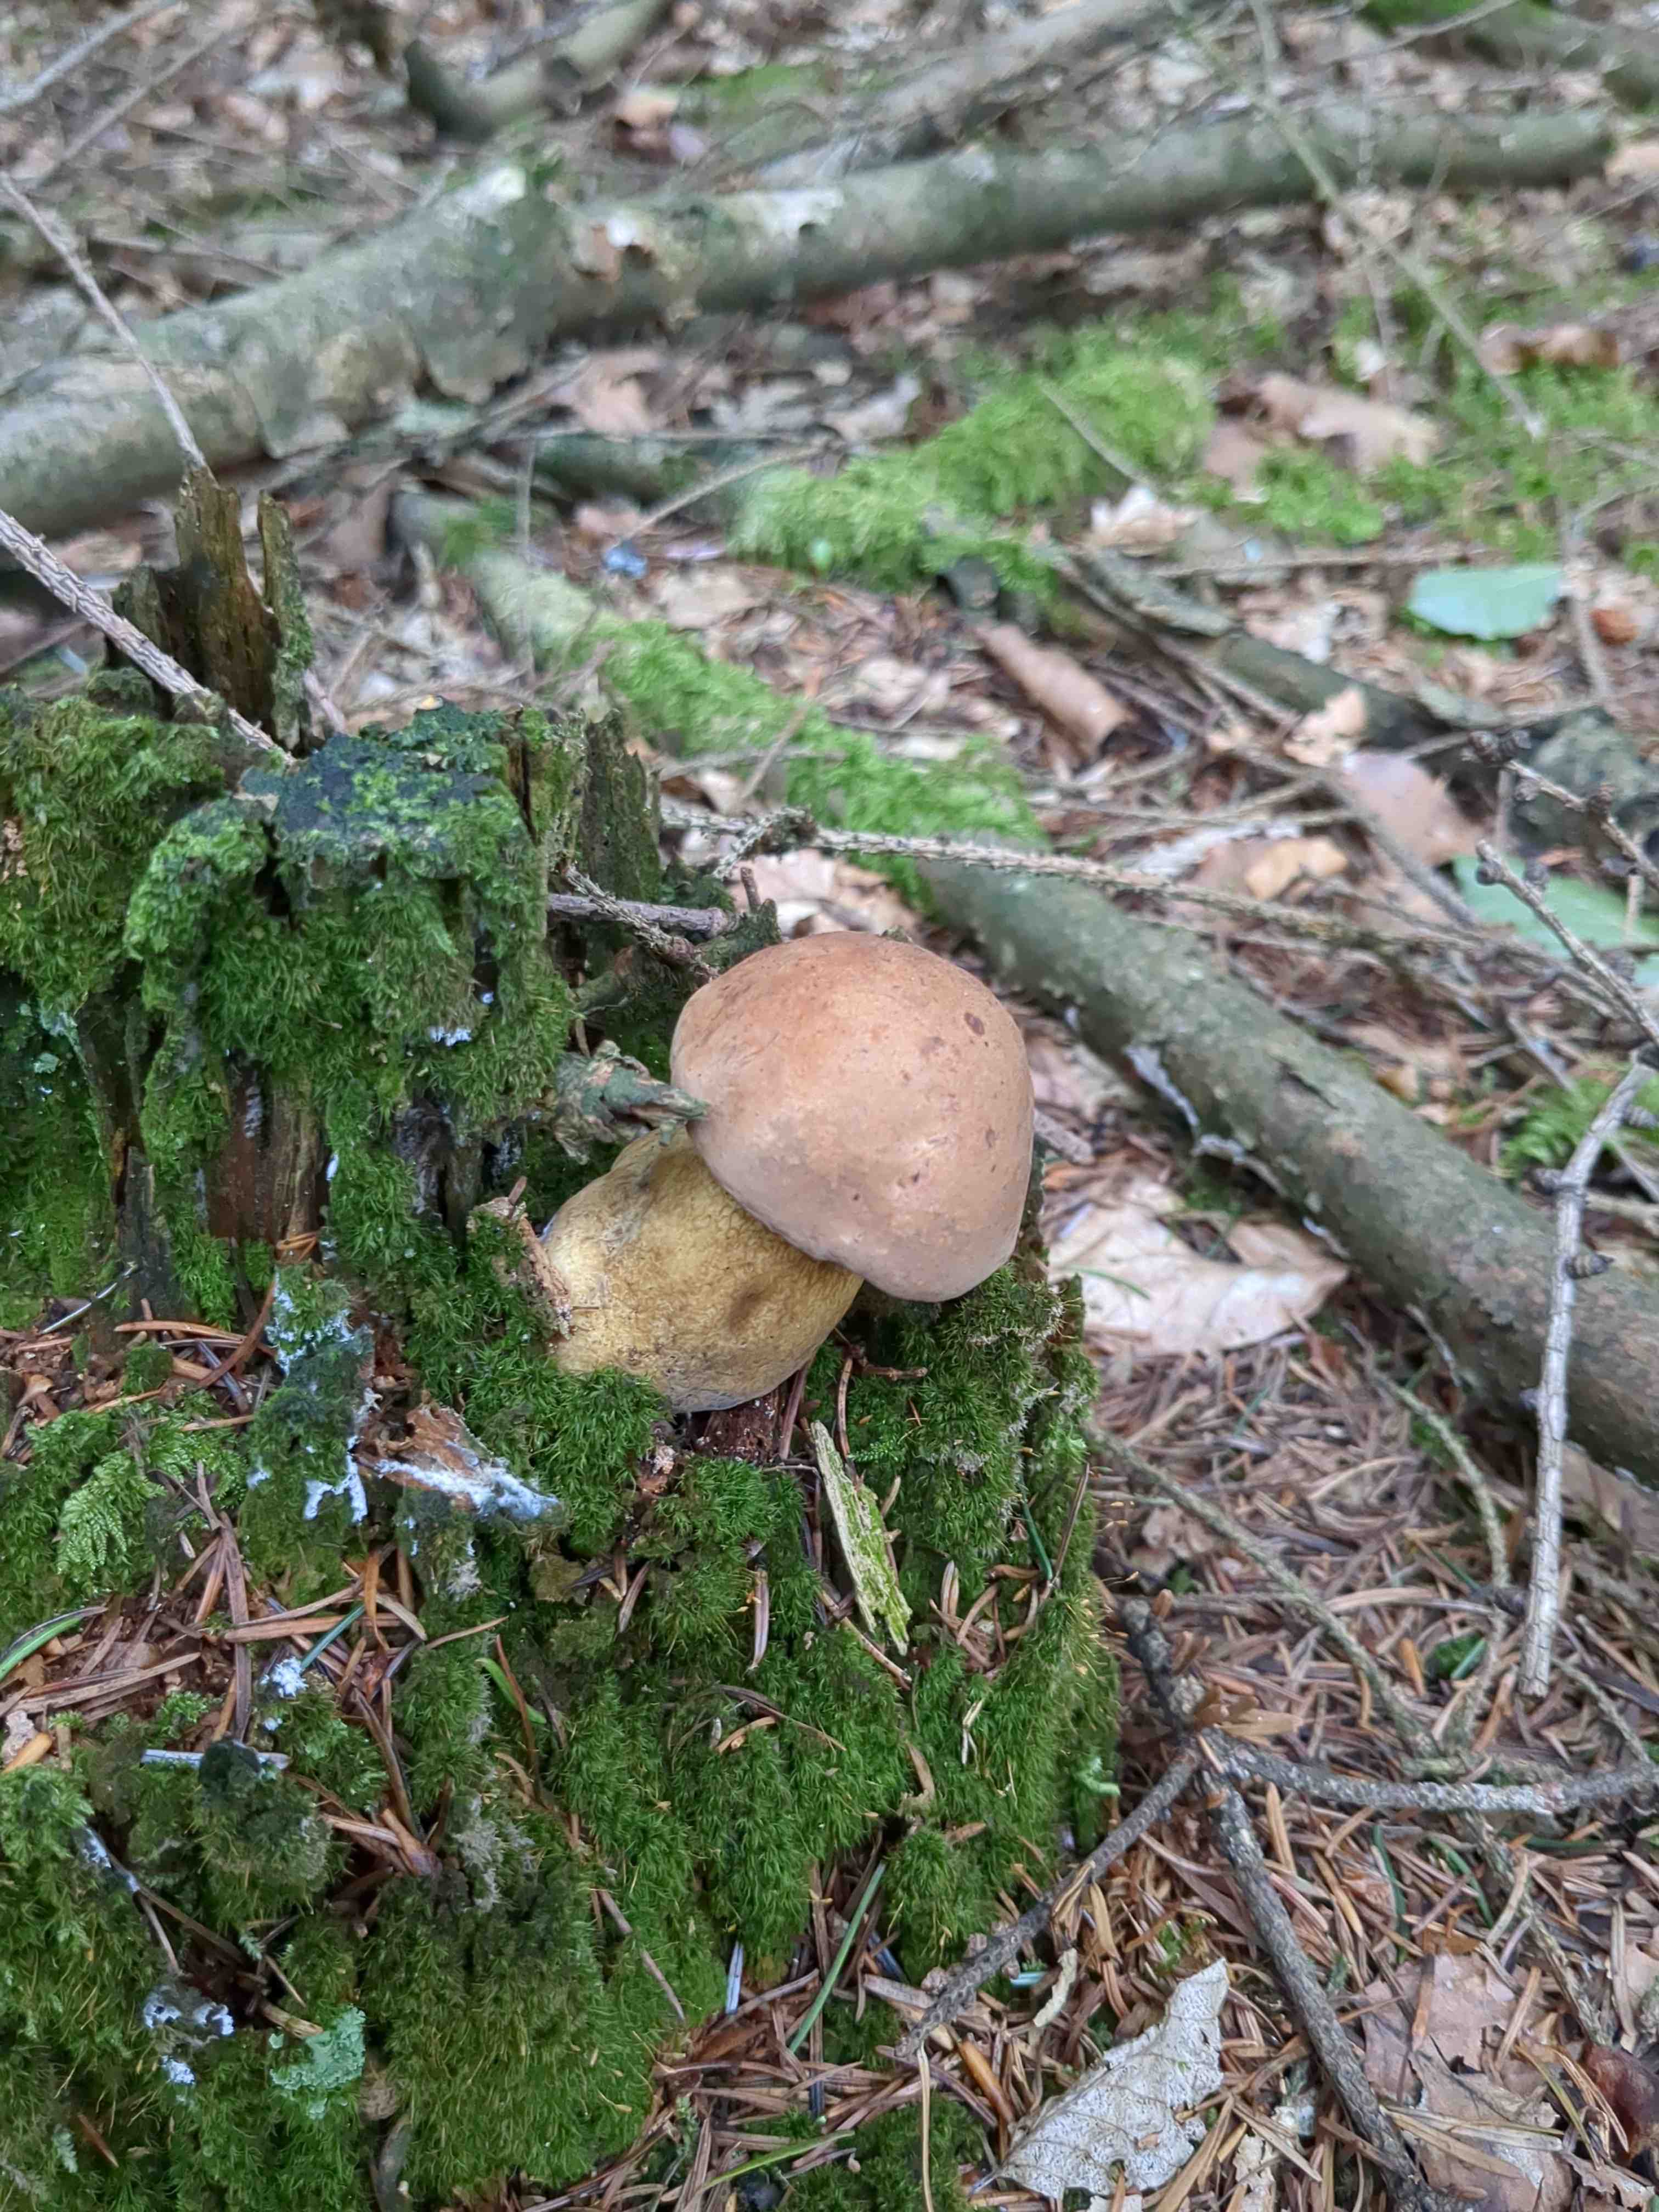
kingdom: Fungi
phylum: Basidiomycota
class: Agaricomycetes
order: Boletales
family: Boletaceae
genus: Tylopilus
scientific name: Tylopilus felleus
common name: galderørhat
